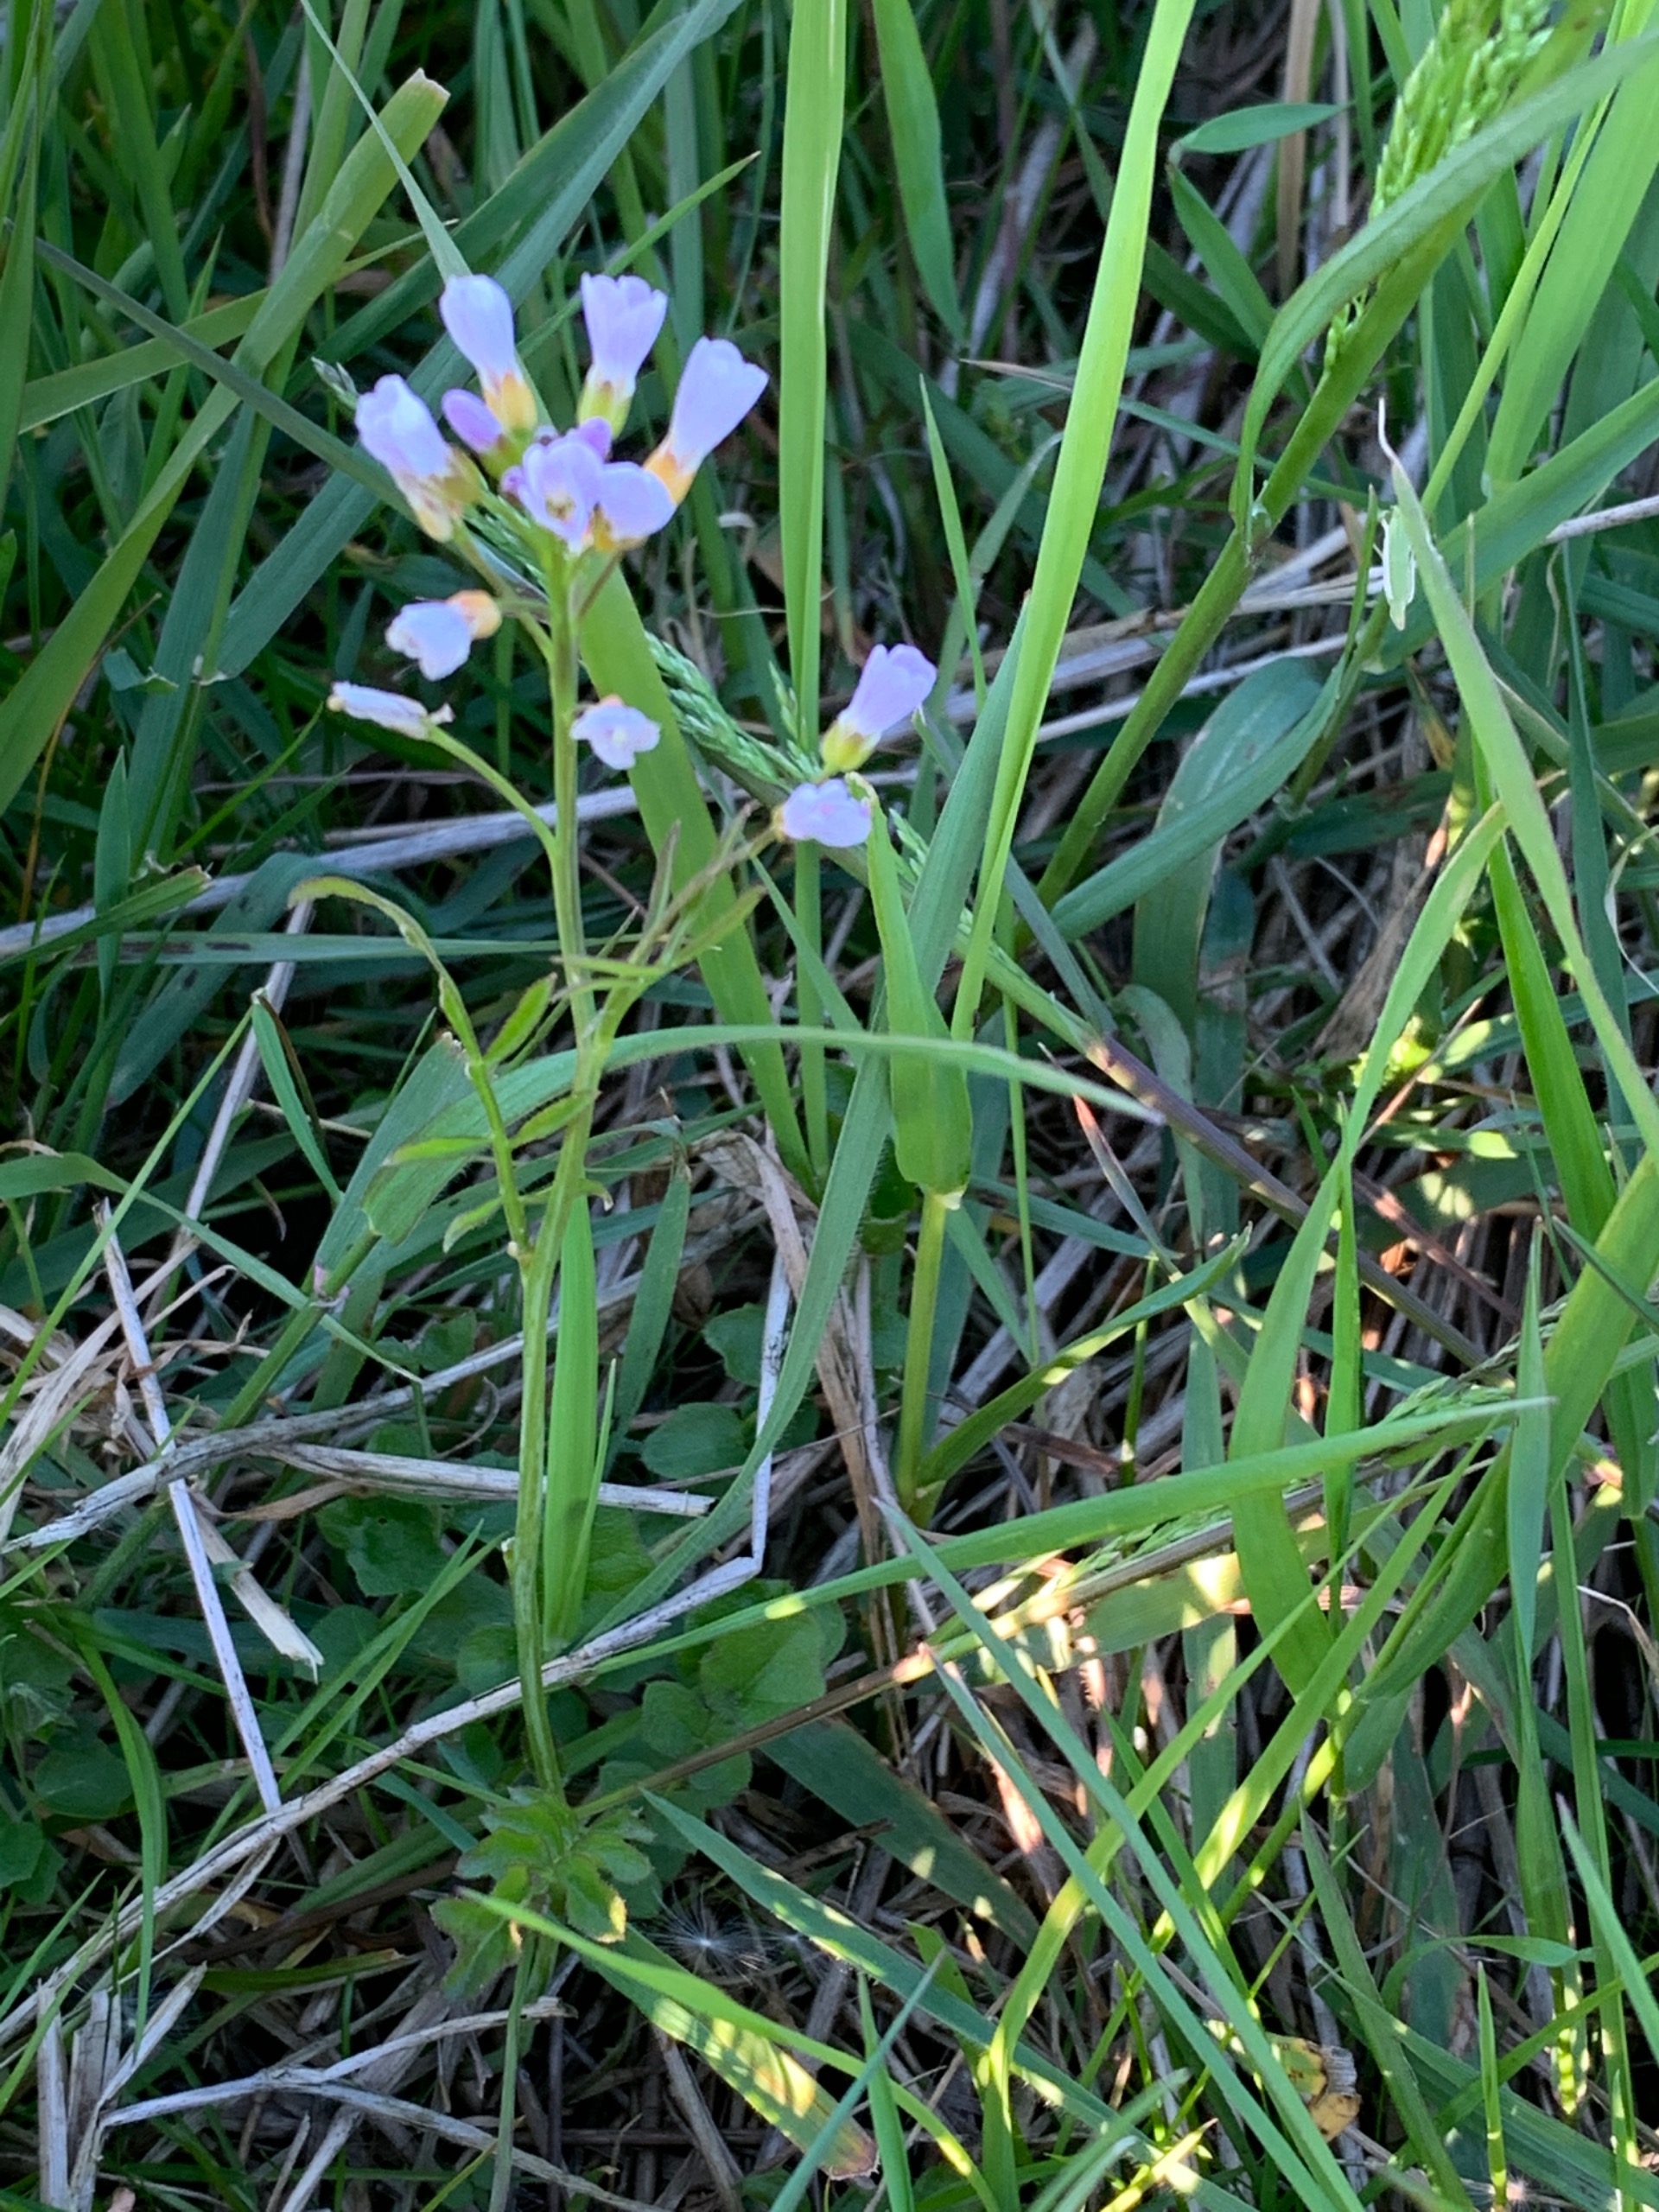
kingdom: Plantae
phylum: Tracheophyta
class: Magnoliopsida
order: Brassicales
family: Brassicaceae
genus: Cardamine
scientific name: Cardamine pratensis
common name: Engkarse
